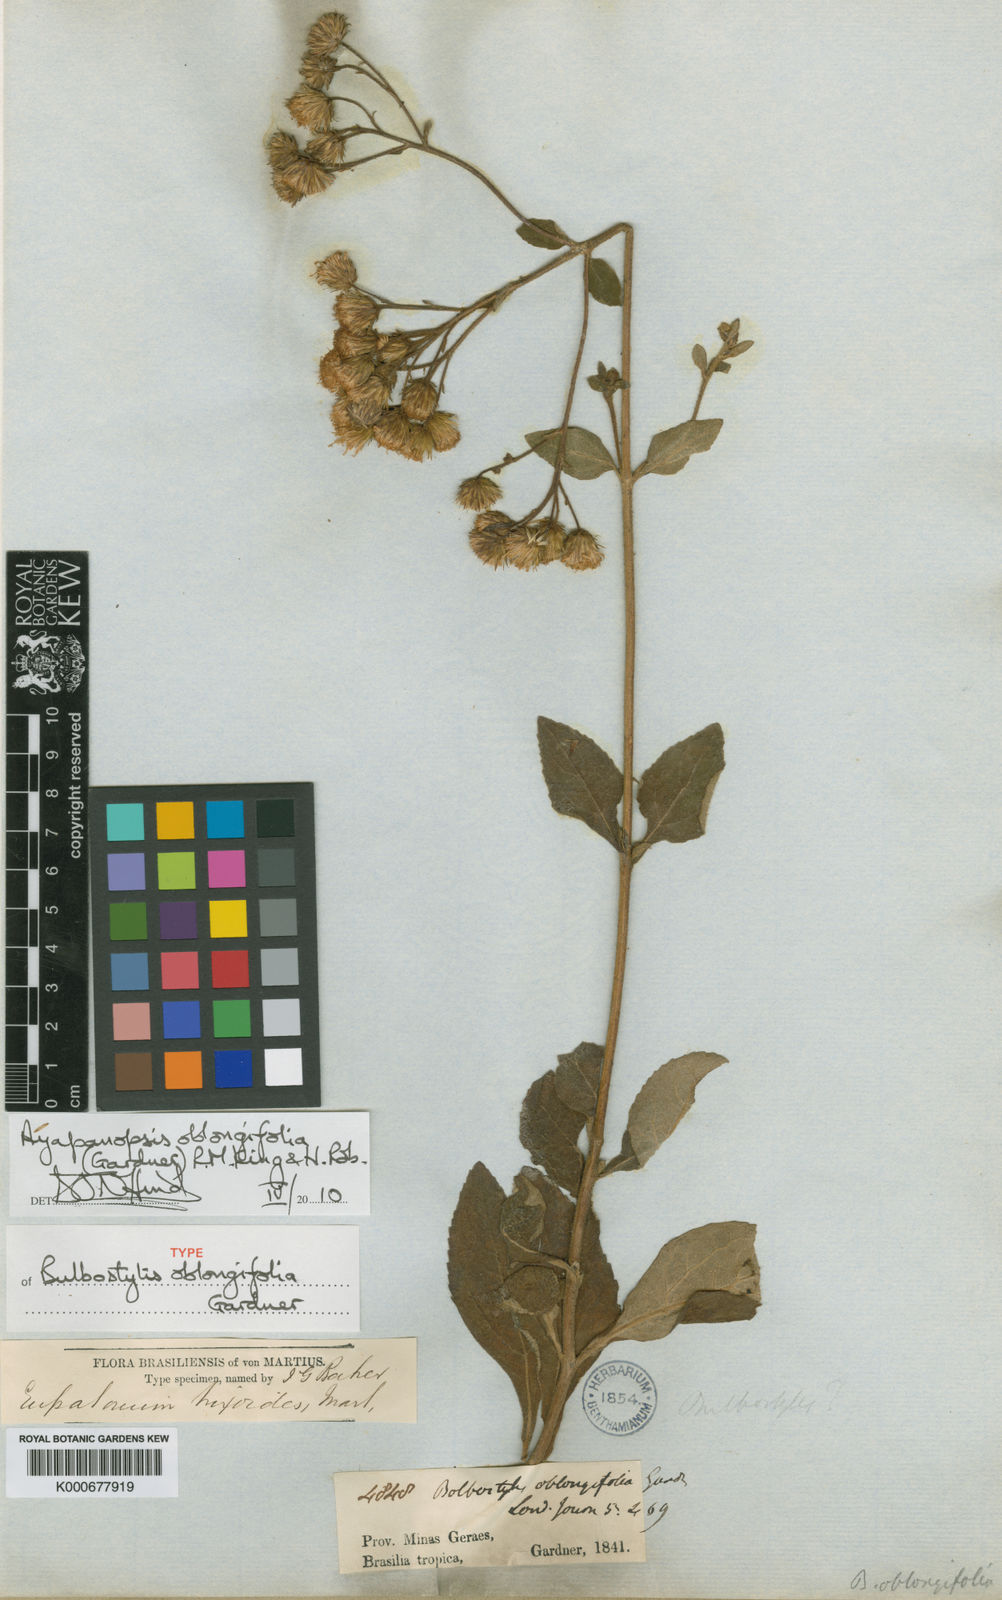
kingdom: Plantae
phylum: Tracheophyta
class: Magnoliopsida
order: Asterales
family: Asteraceae
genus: Ayapanopsis
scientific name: Ayapanopsis oblongifolia
